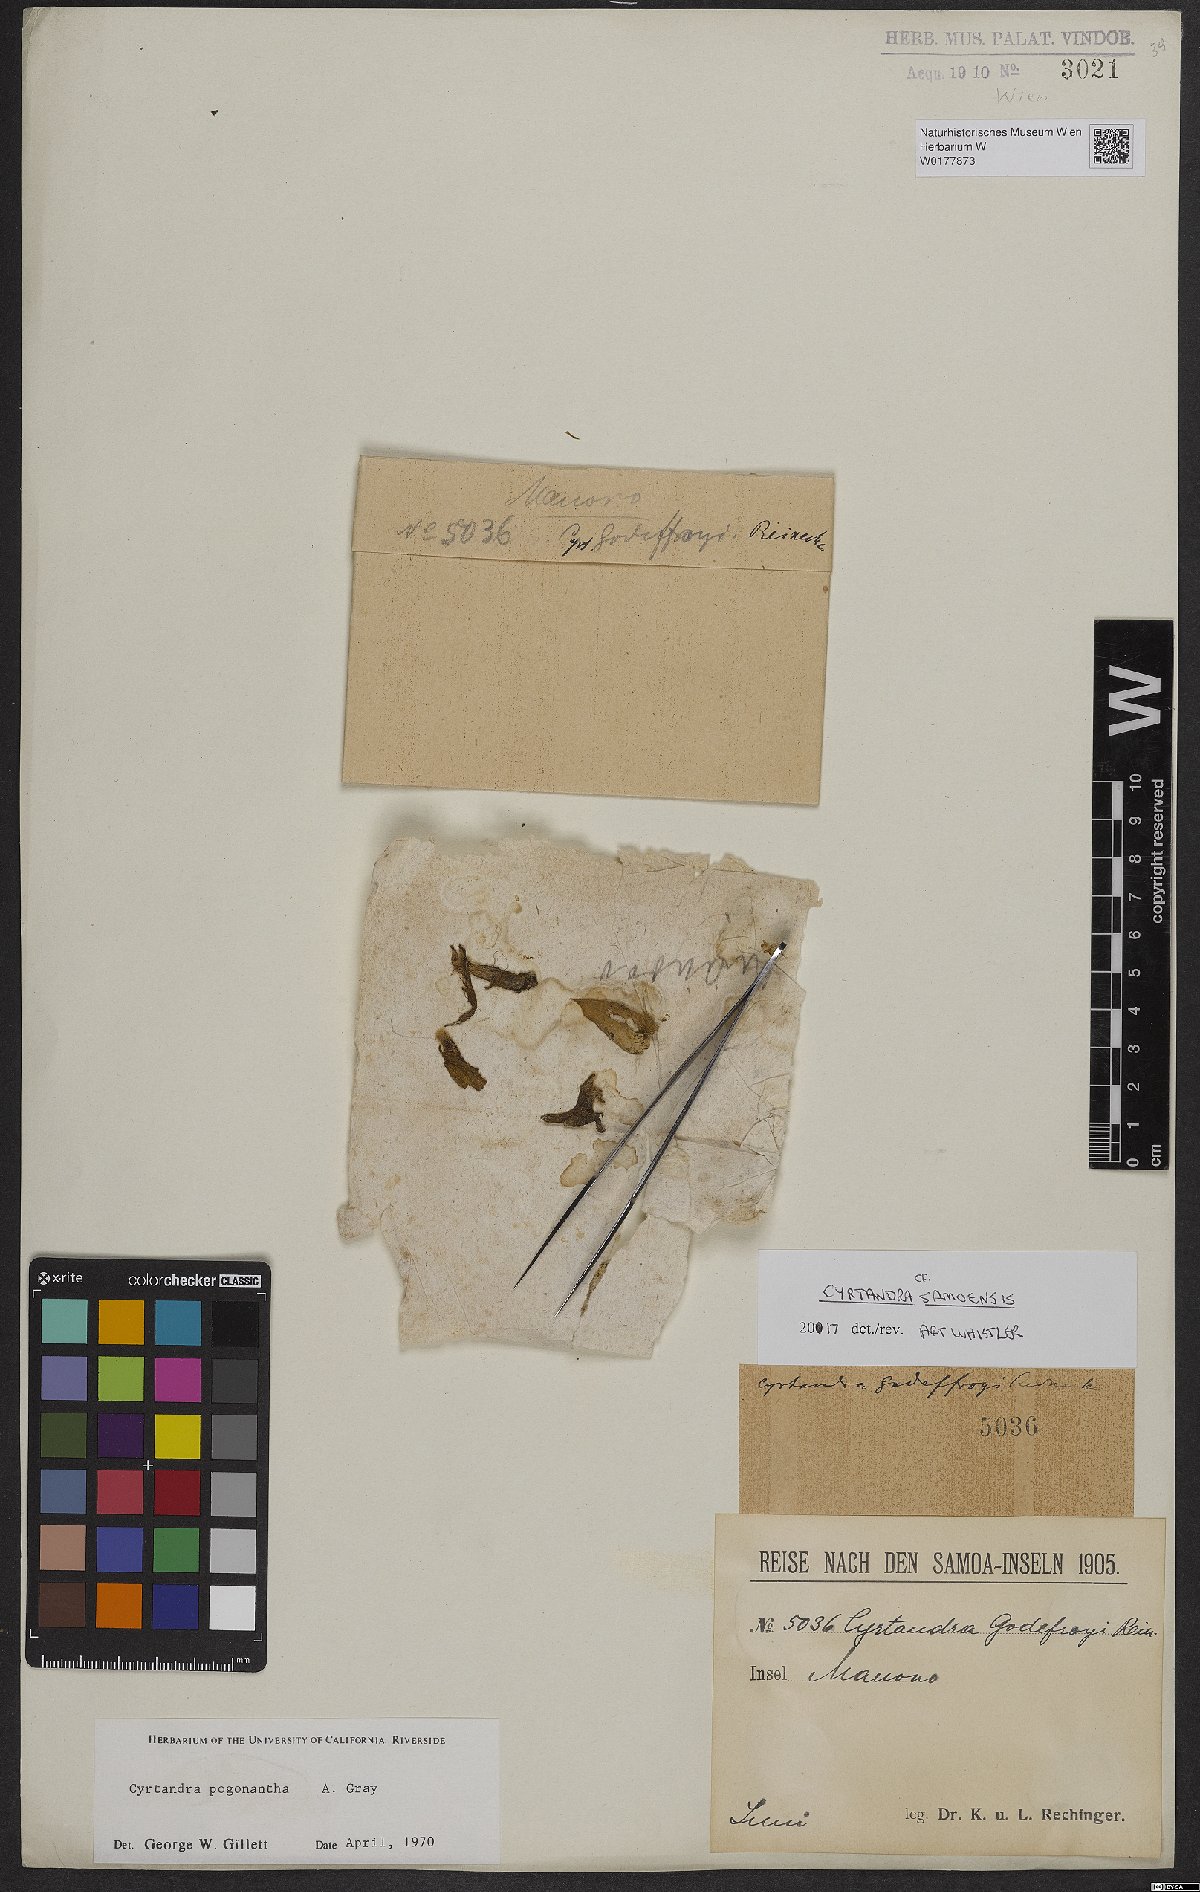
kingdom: Plantae
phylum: Tracheophyta
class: Magnoliopsida
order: Lamiales
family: Gesneriaceae
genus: Cyrtandra
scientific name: Cyrtandra pogonantha
